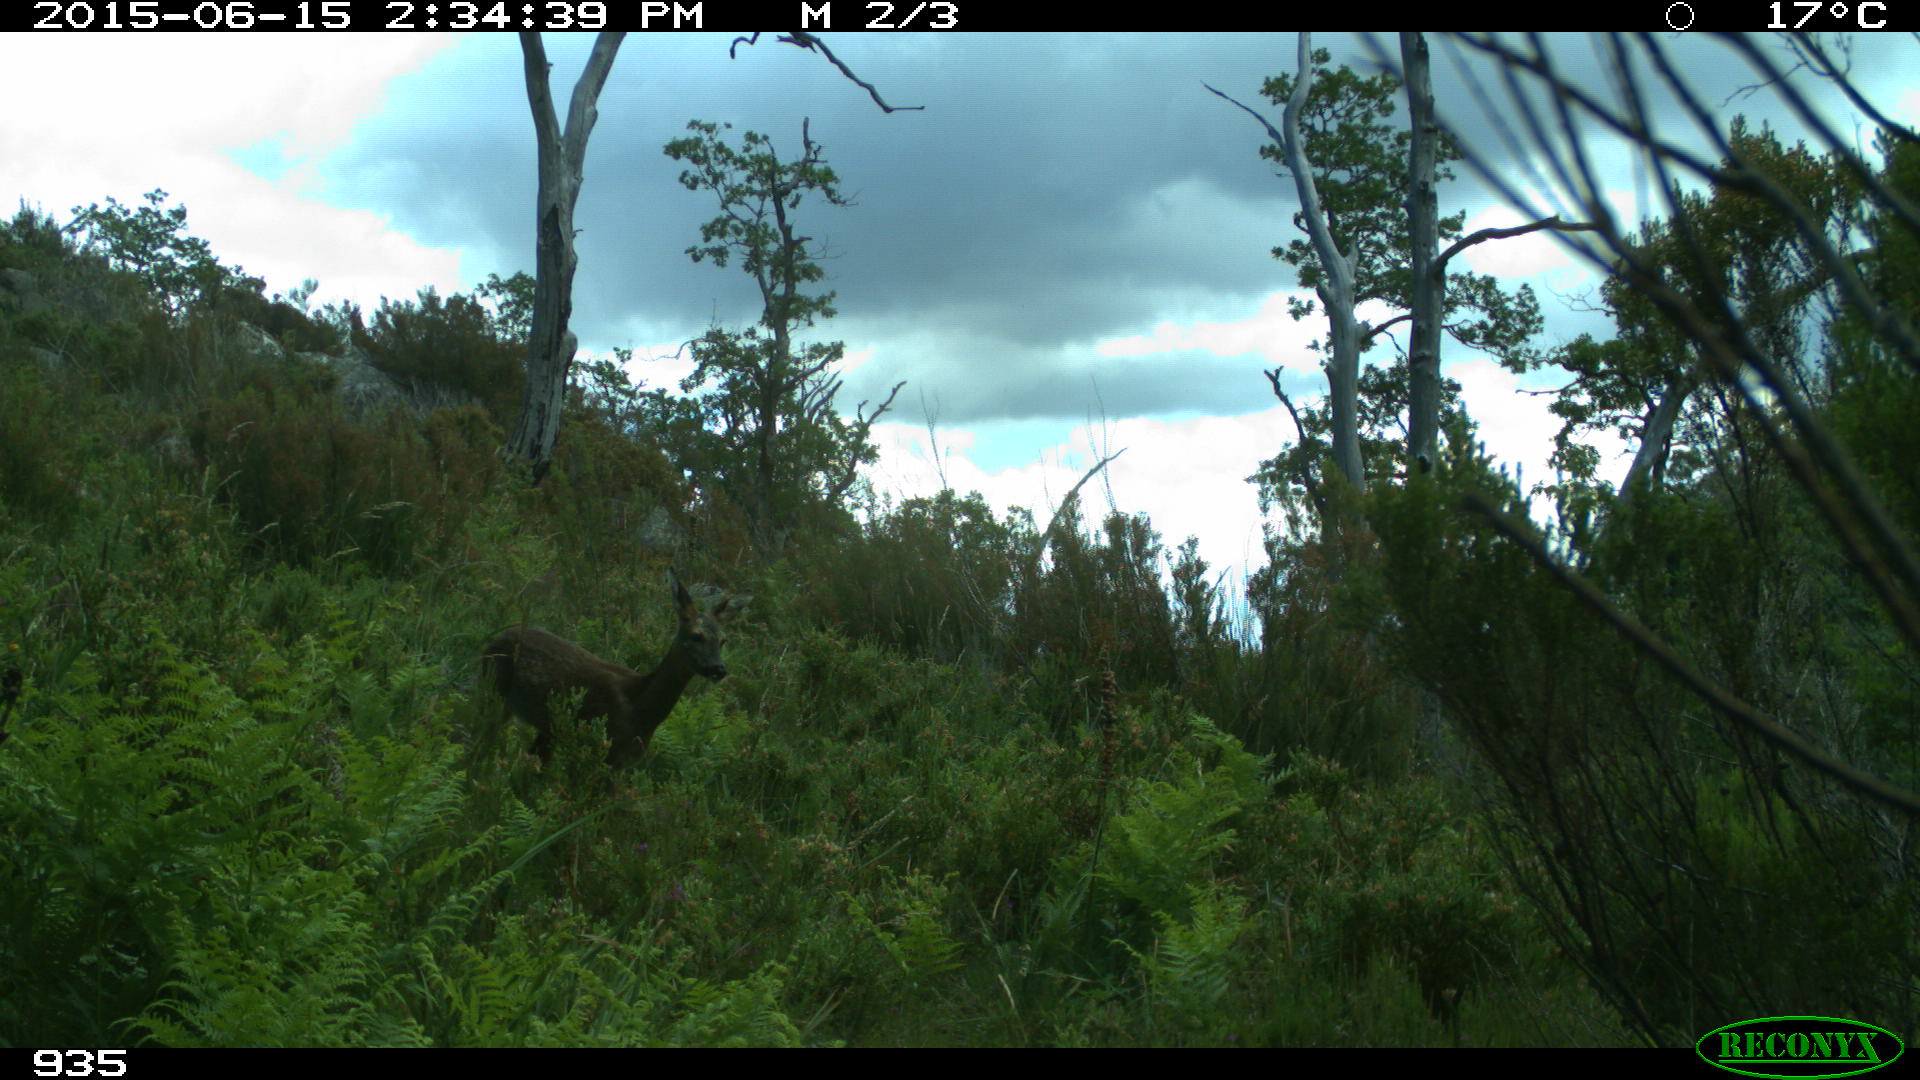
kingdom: Animalia
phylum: Chordata
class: Mammalia
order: Artiodactyla
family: Cervidae
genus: Capreolus
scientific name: Capreolus capreolus
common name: Western roe deer
